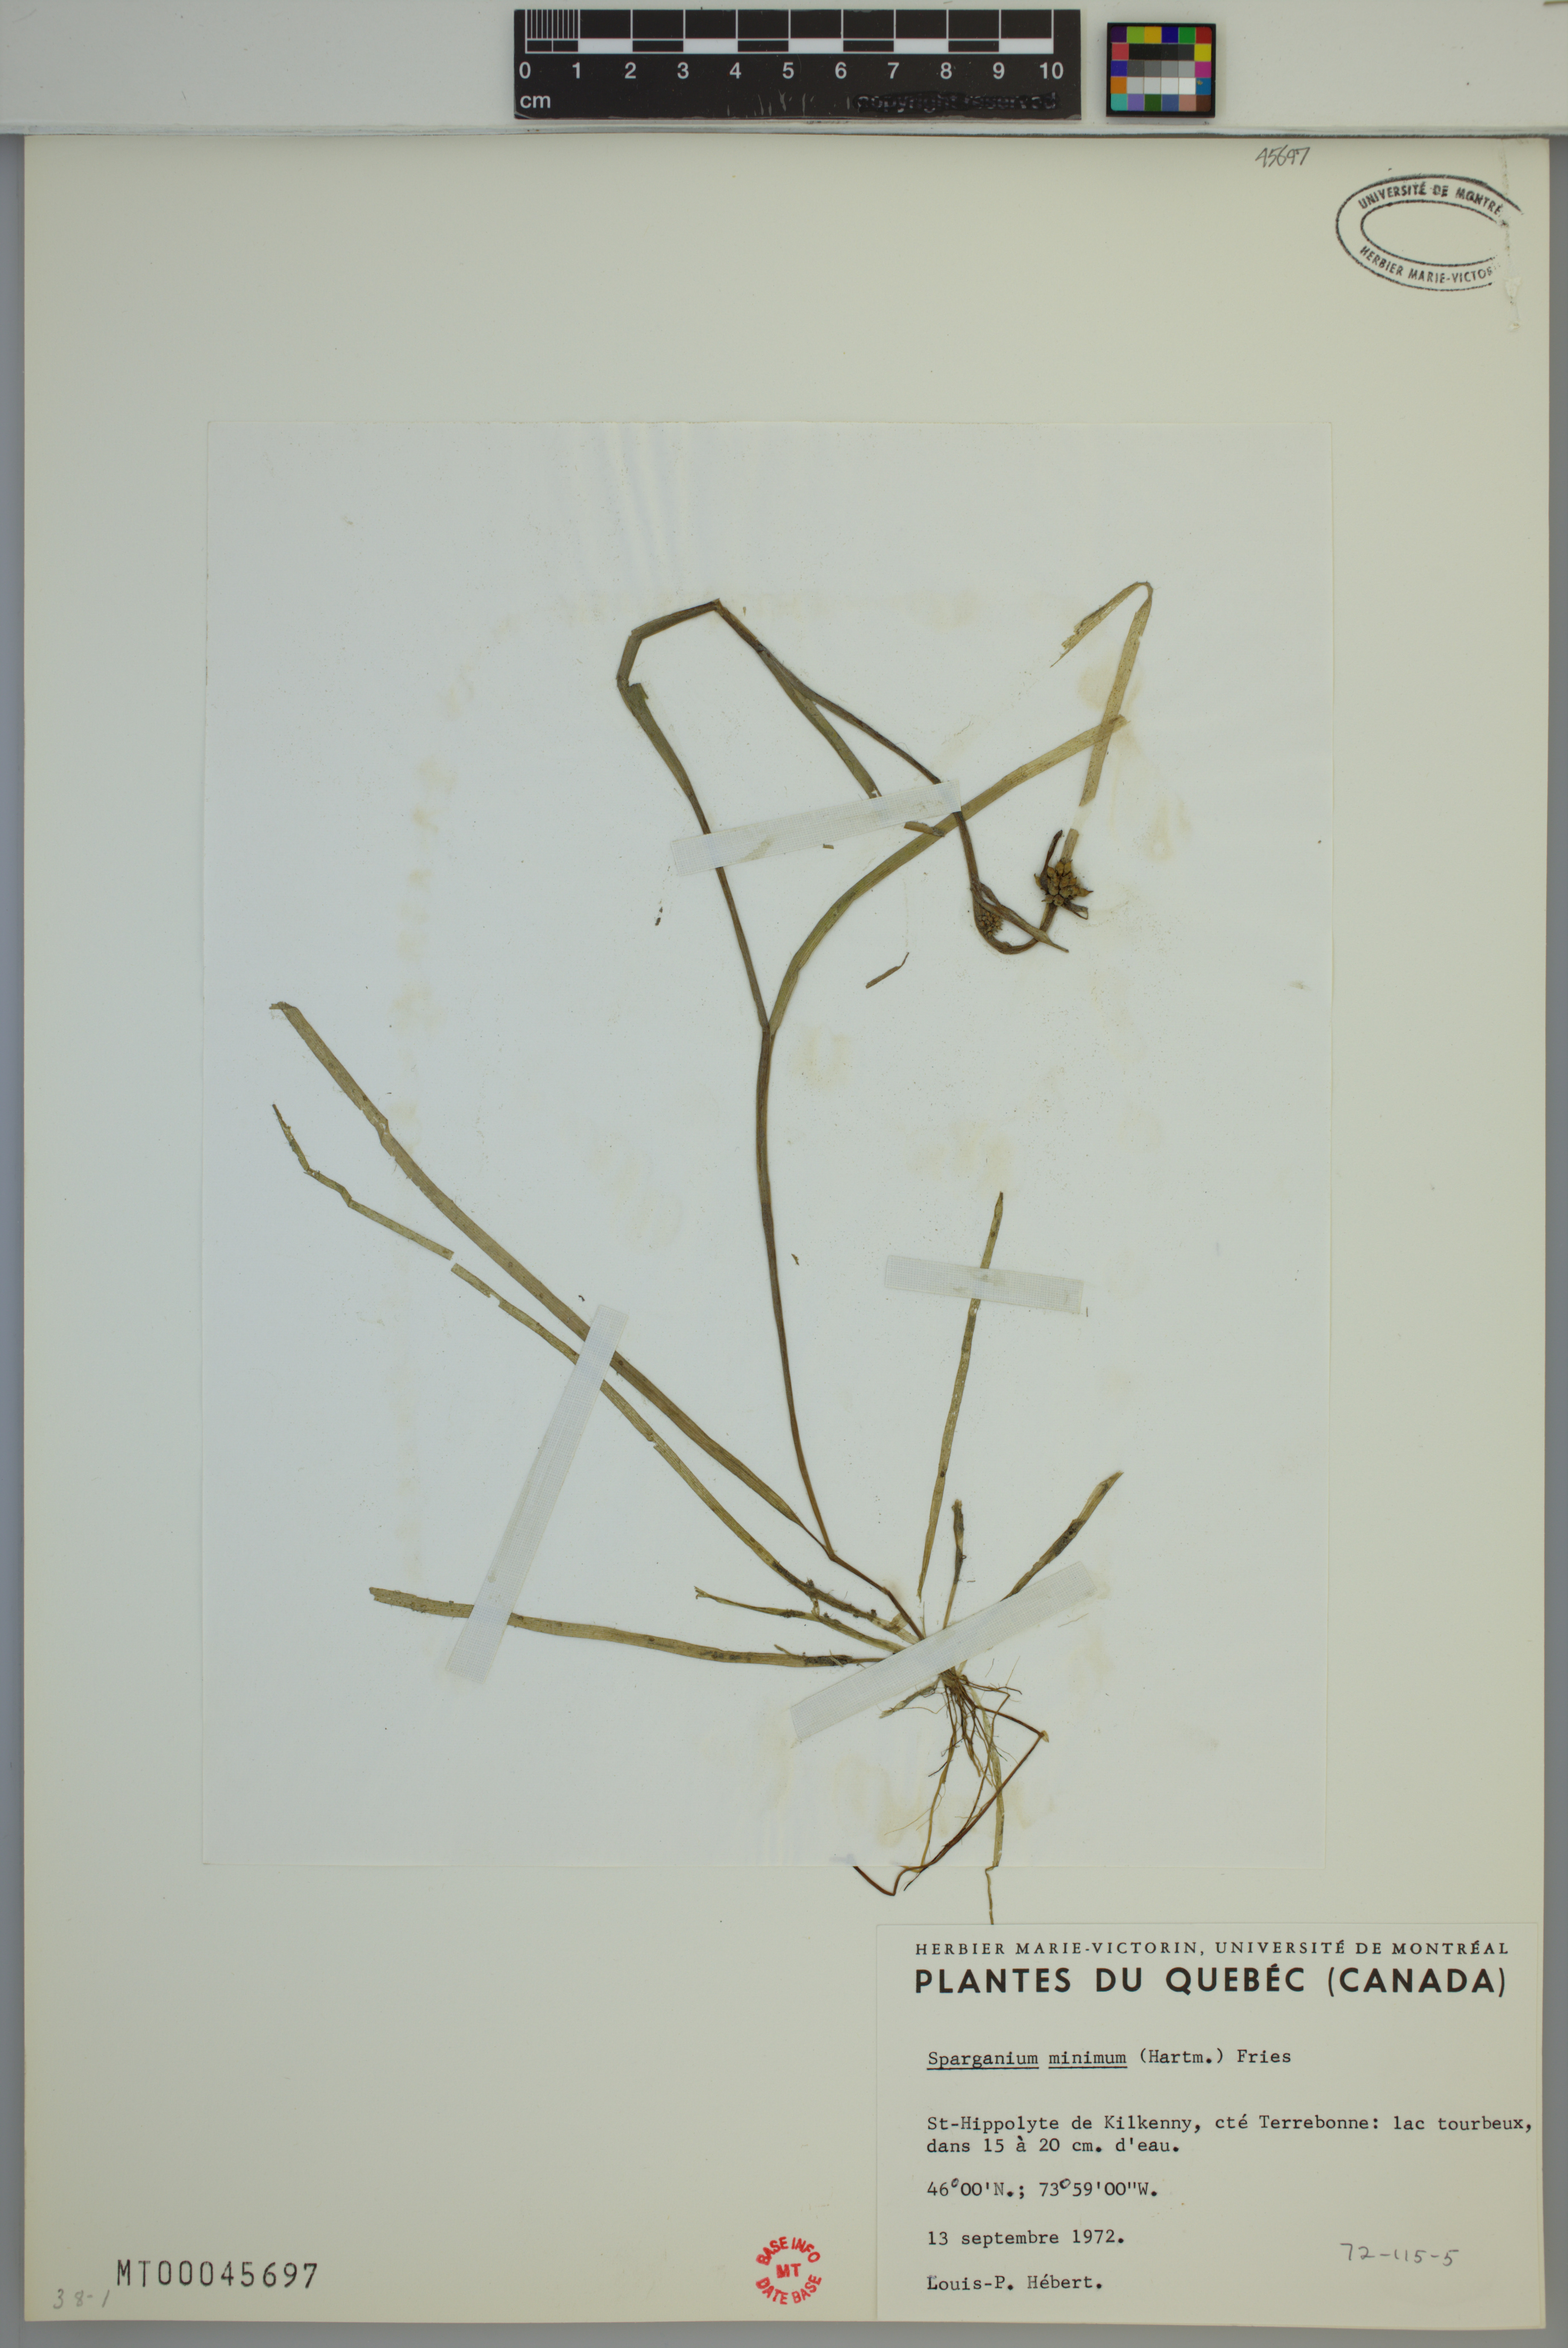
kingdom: Plantae
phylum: Tracheophyta
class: Liliopsida
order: Poales
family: Typhaceae
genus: Sparganium
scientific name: Sparganium natans
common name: Least bur-reed
